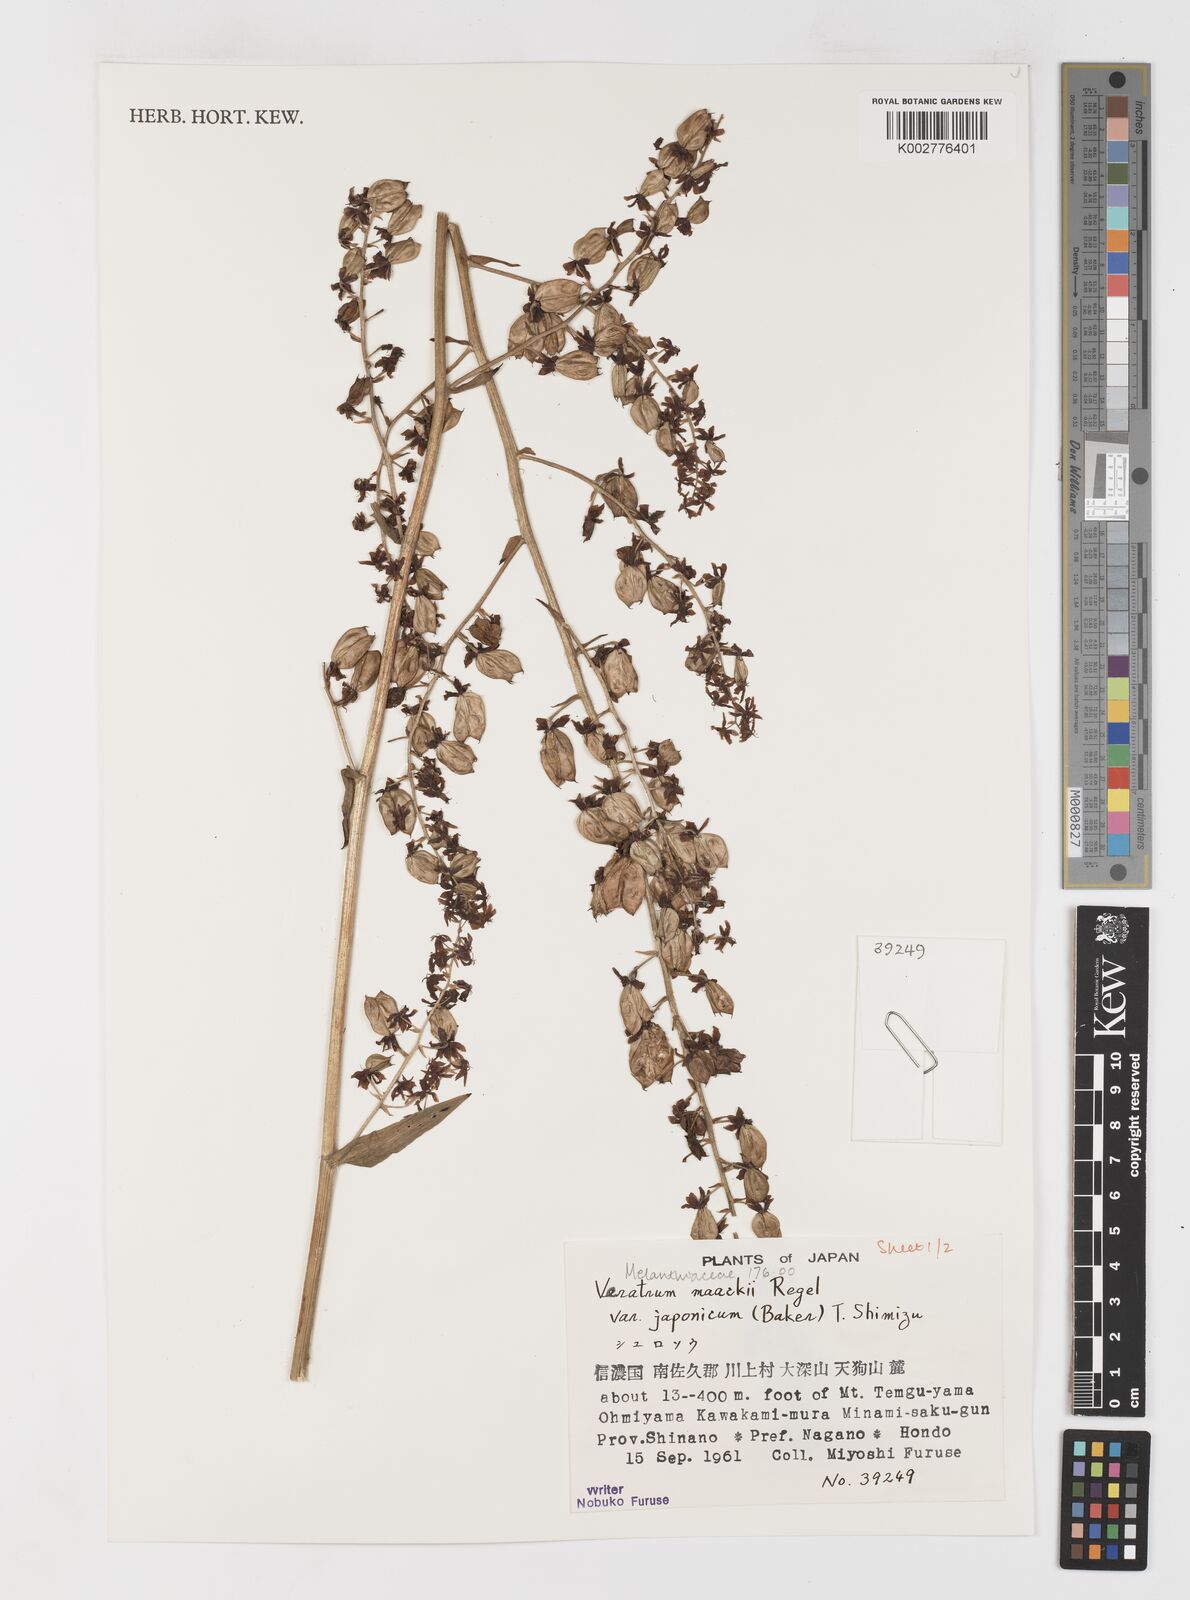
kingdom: Plantae
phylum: Tracheophyta
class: Liliopsida
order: Liliales
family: Melanthiaceae
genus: Veratrum
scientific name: Veratrum maackii
